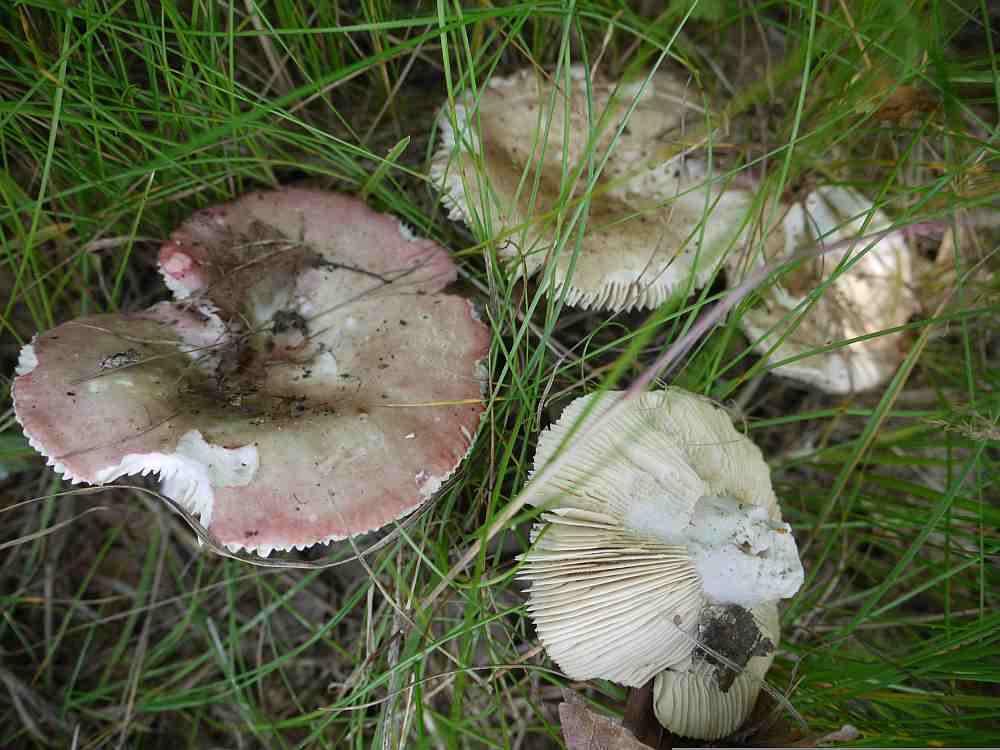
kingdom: Fungi
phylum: Basidiomycota
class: Agaricomycetes
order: Russulales
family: Russulaceae
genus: Russula
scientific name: Russula depallens
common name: falmende skørhat
